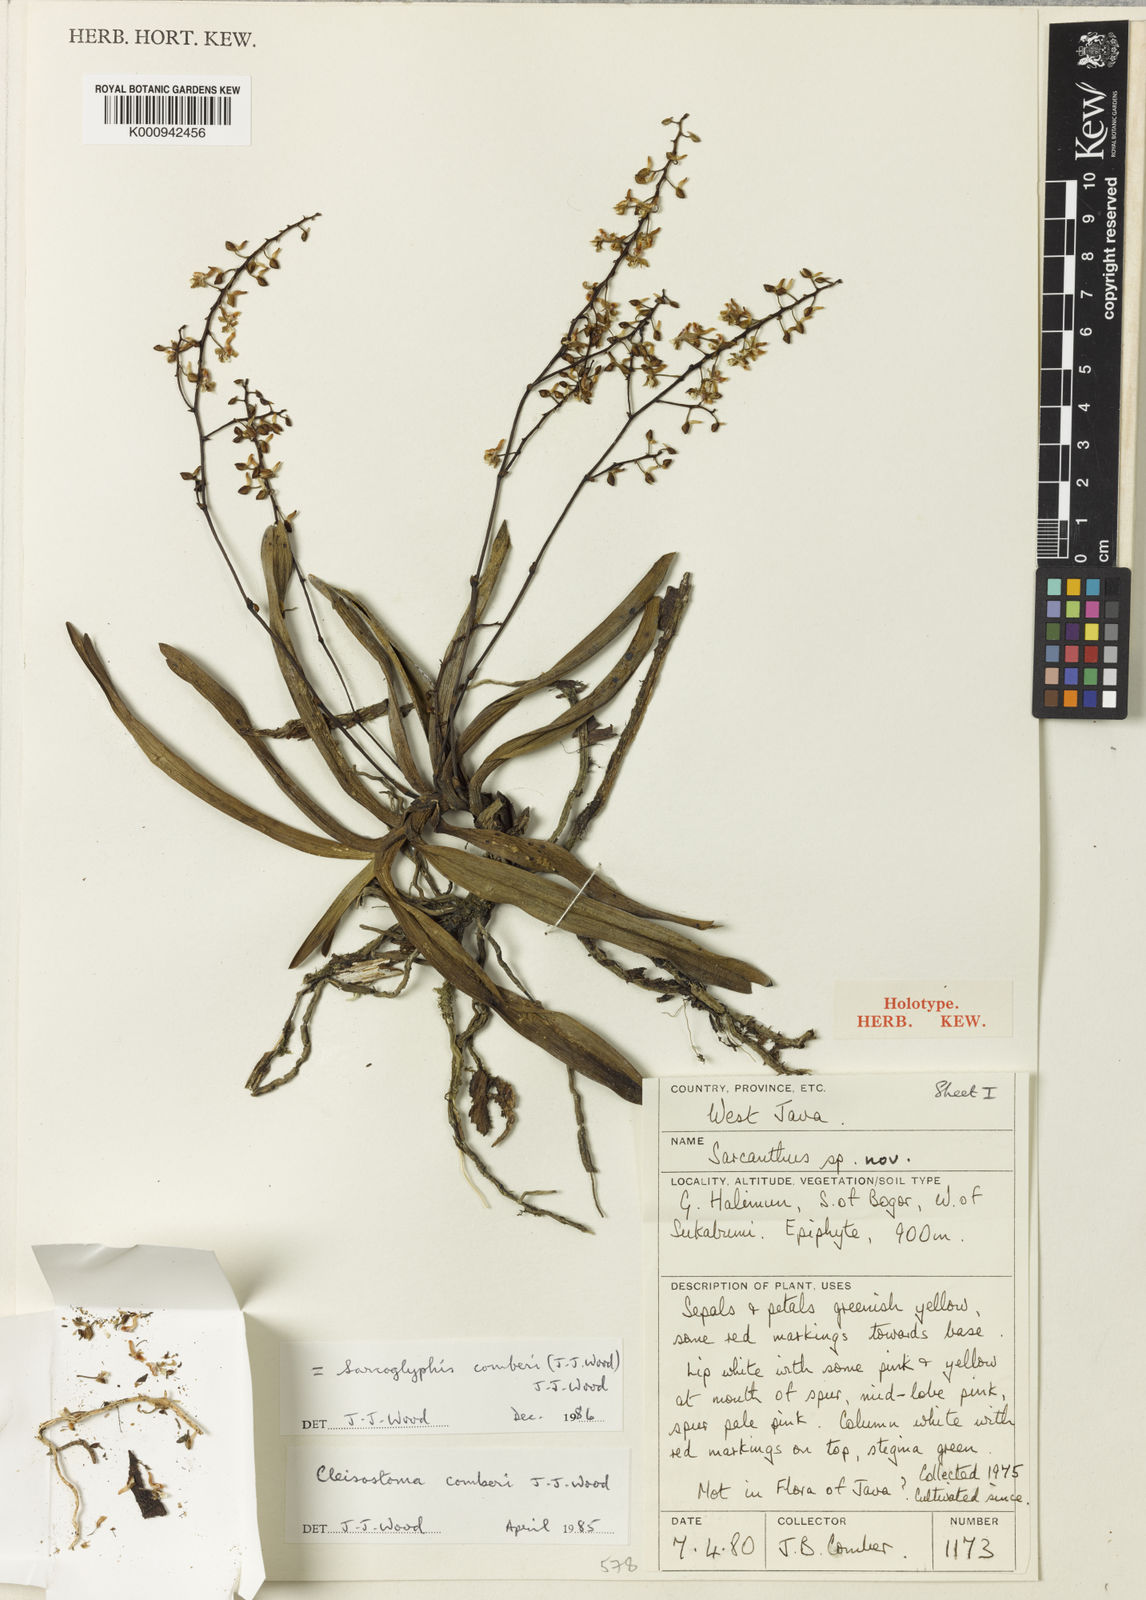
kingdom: Plantae
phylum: Tracheophyta
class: Liliopsida
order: Asparagales
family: Orchidaceae
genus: Sarcoglyphis
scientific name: Sarcoglyphis comberi
